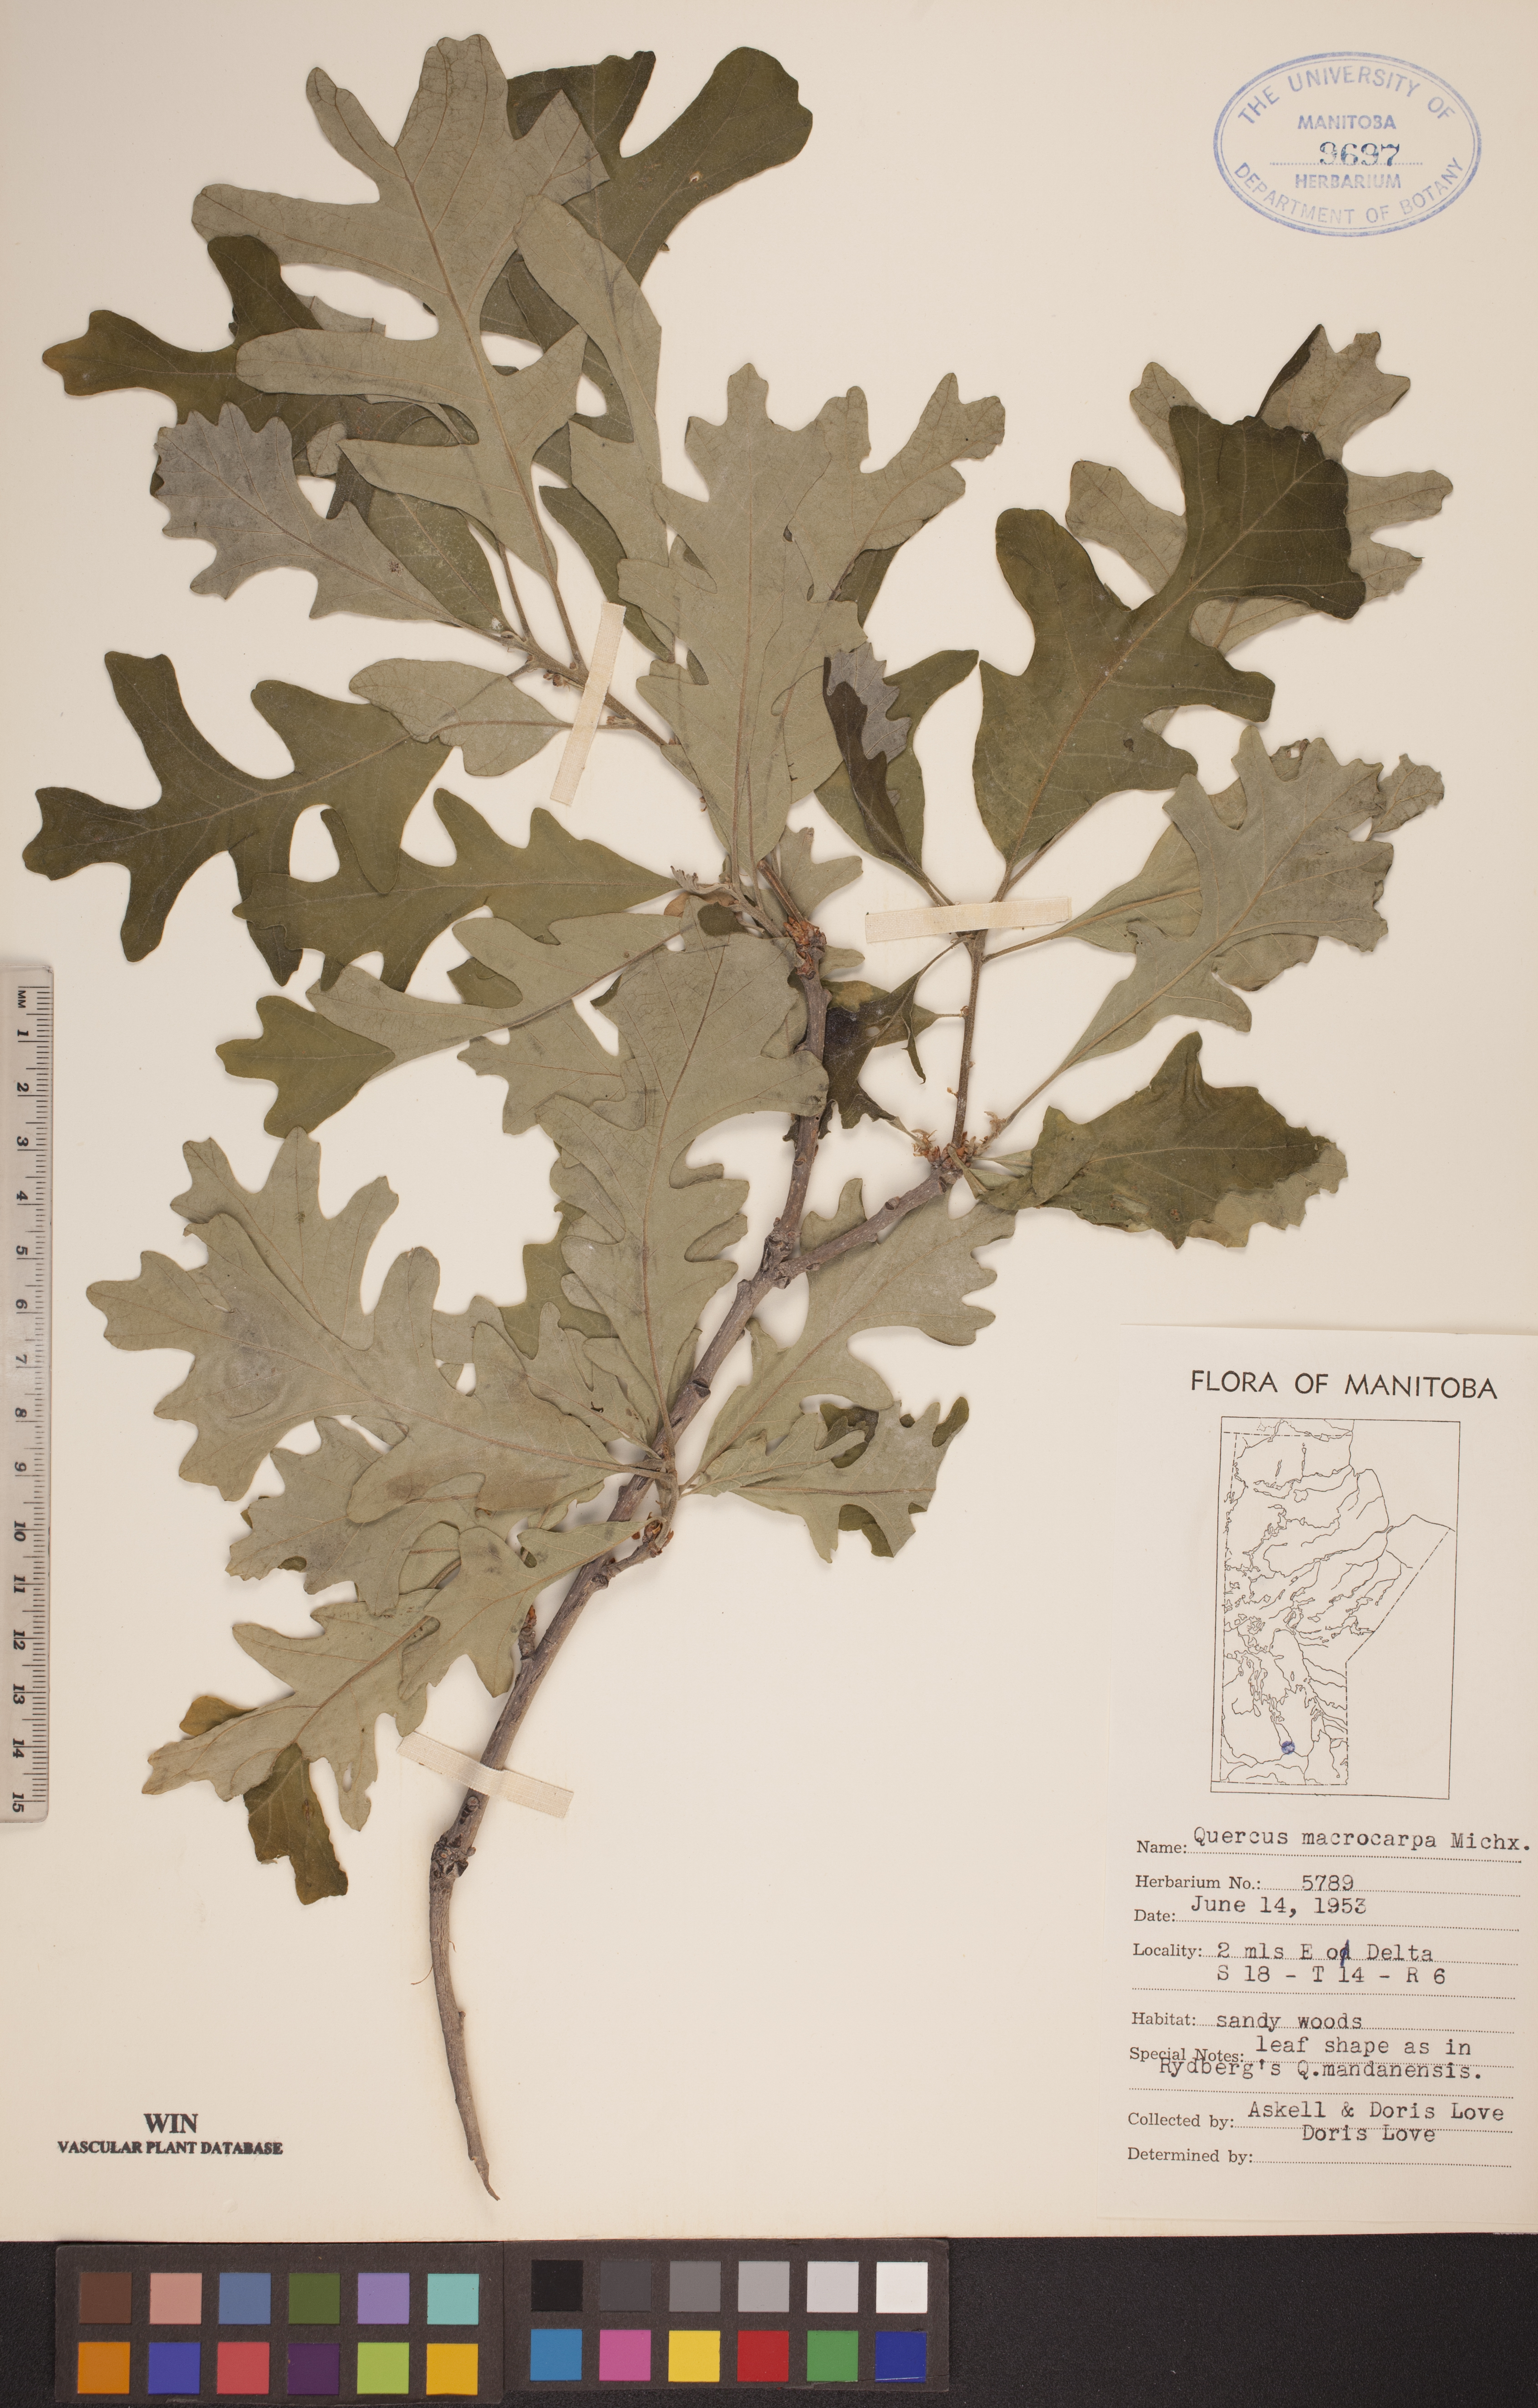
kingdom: Plantae
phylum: Tracheophyta
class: Magnoliopsida
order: Fagales
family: Fagaceae
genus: Quercus
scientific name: Quercus macrocarpa
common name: Bur oak
